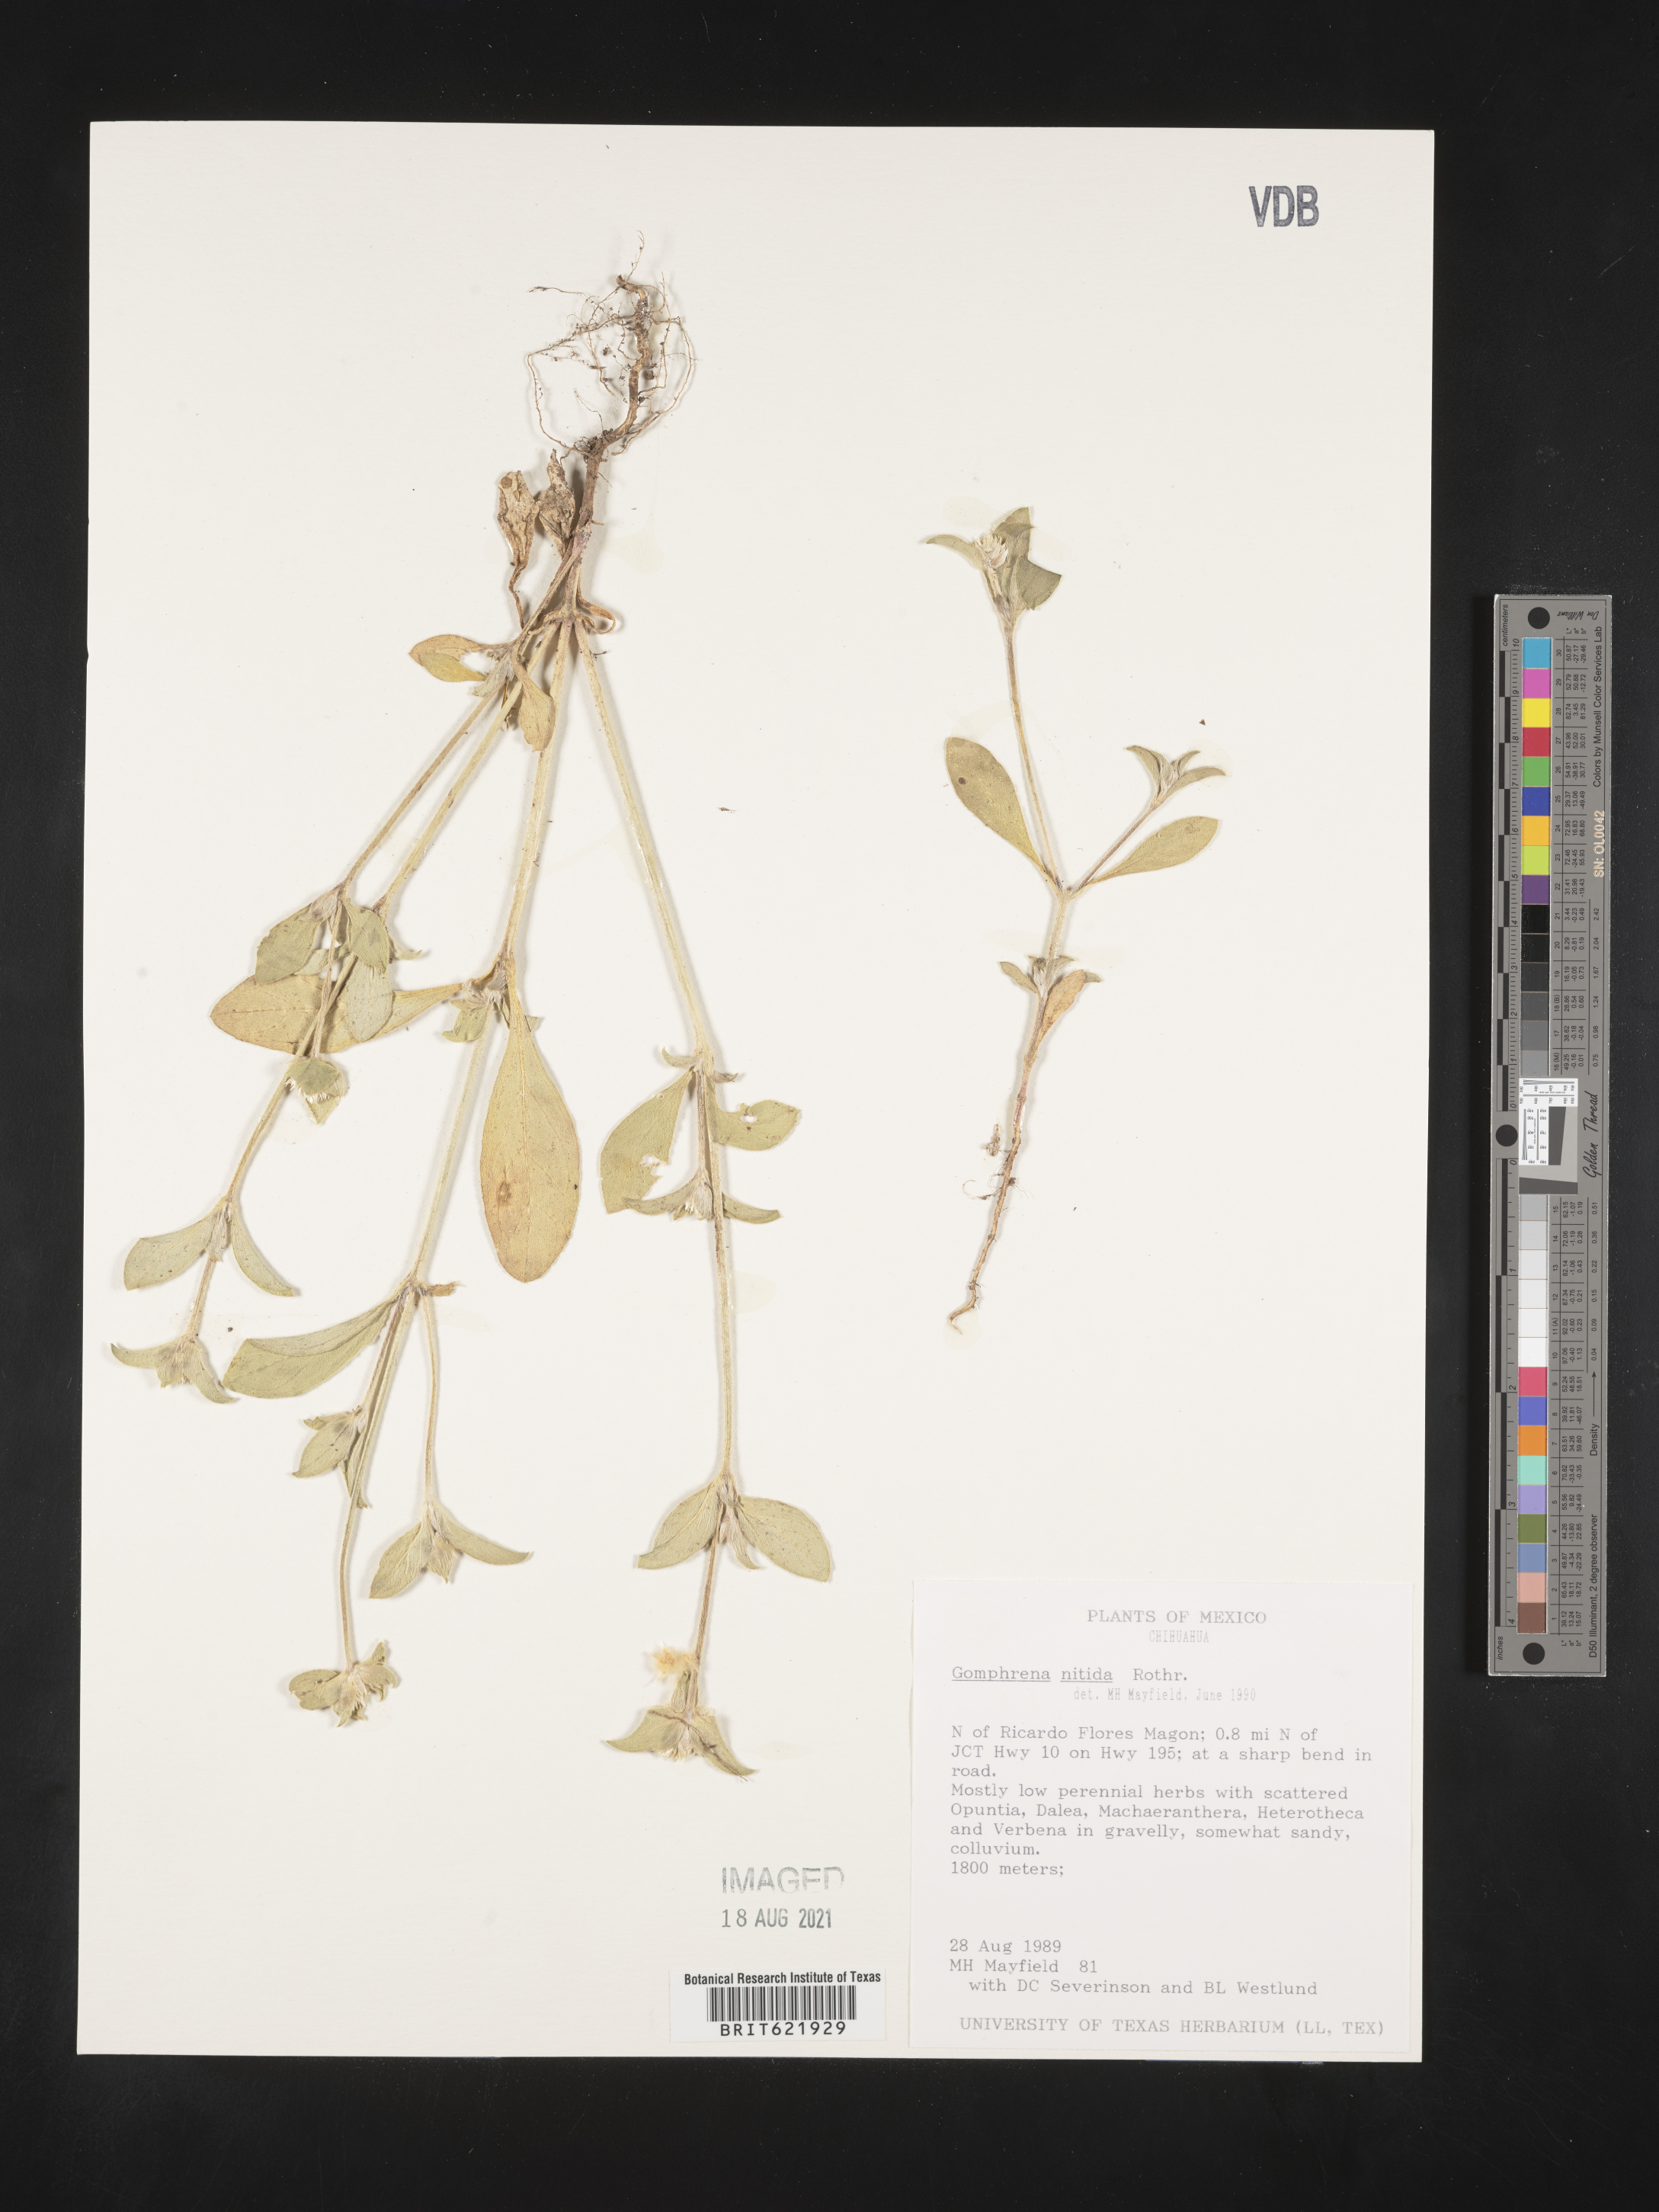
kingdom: Plantae
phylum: Tracheophyta
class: Magnoliopsida
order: Caryophyllales
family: Amaranthaceae
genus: Gomphrena
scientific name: Gomphrena
